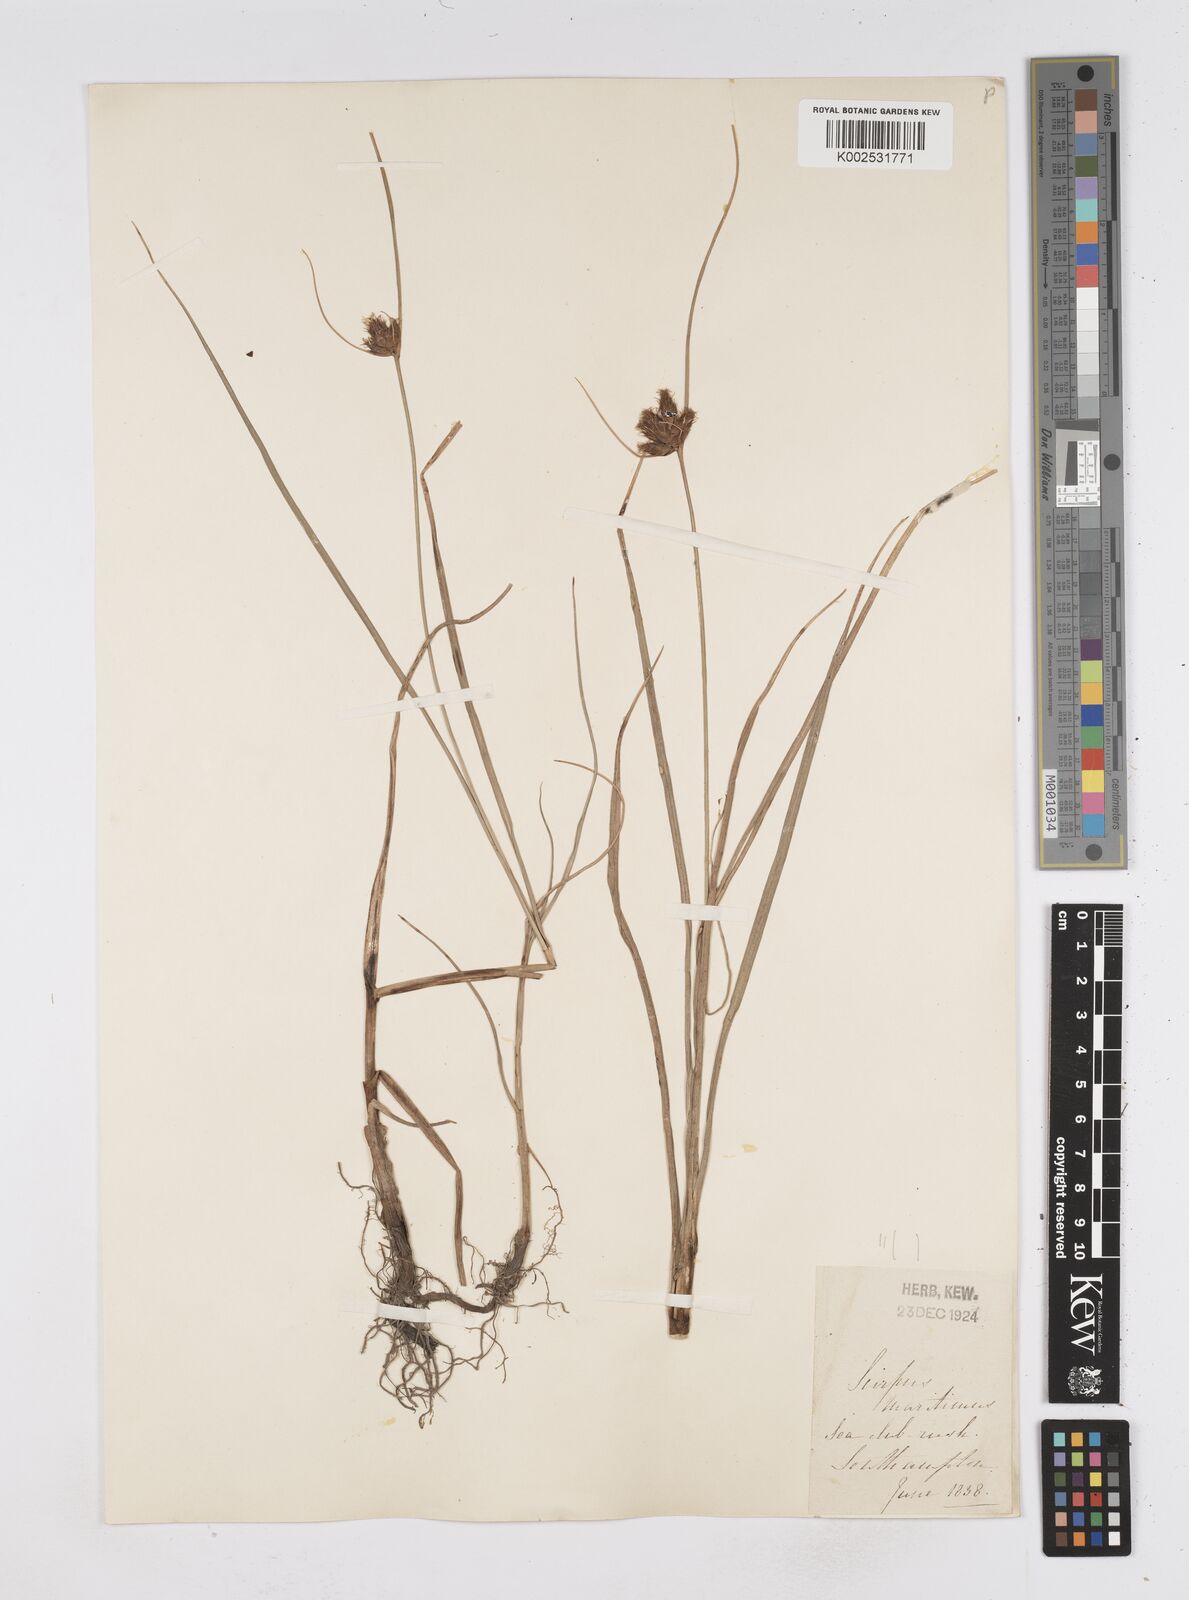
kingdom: Plantae
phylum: Tracheophyta
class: Liliopsida
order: Poales
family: Cyperaceae
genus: Bolboschoenus
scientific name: Bolboschoenus maritimus
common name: Sea club-rush
